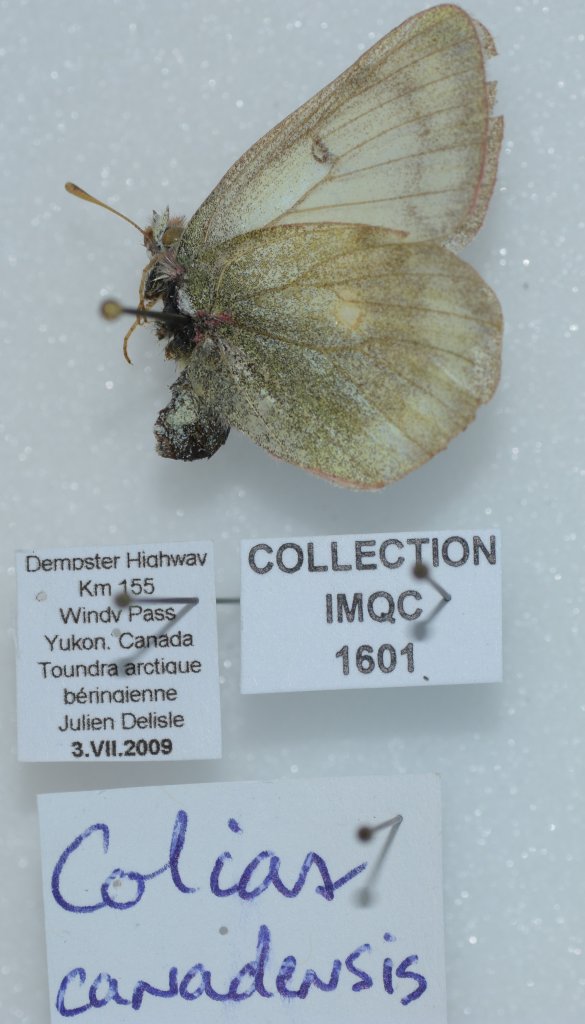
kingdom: Animalia
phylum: Arthropoda
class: Insecta
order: Lepidoptera
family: Pieridae
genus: Colias
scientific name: Colias canadensis
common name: Canadian Sulphur
